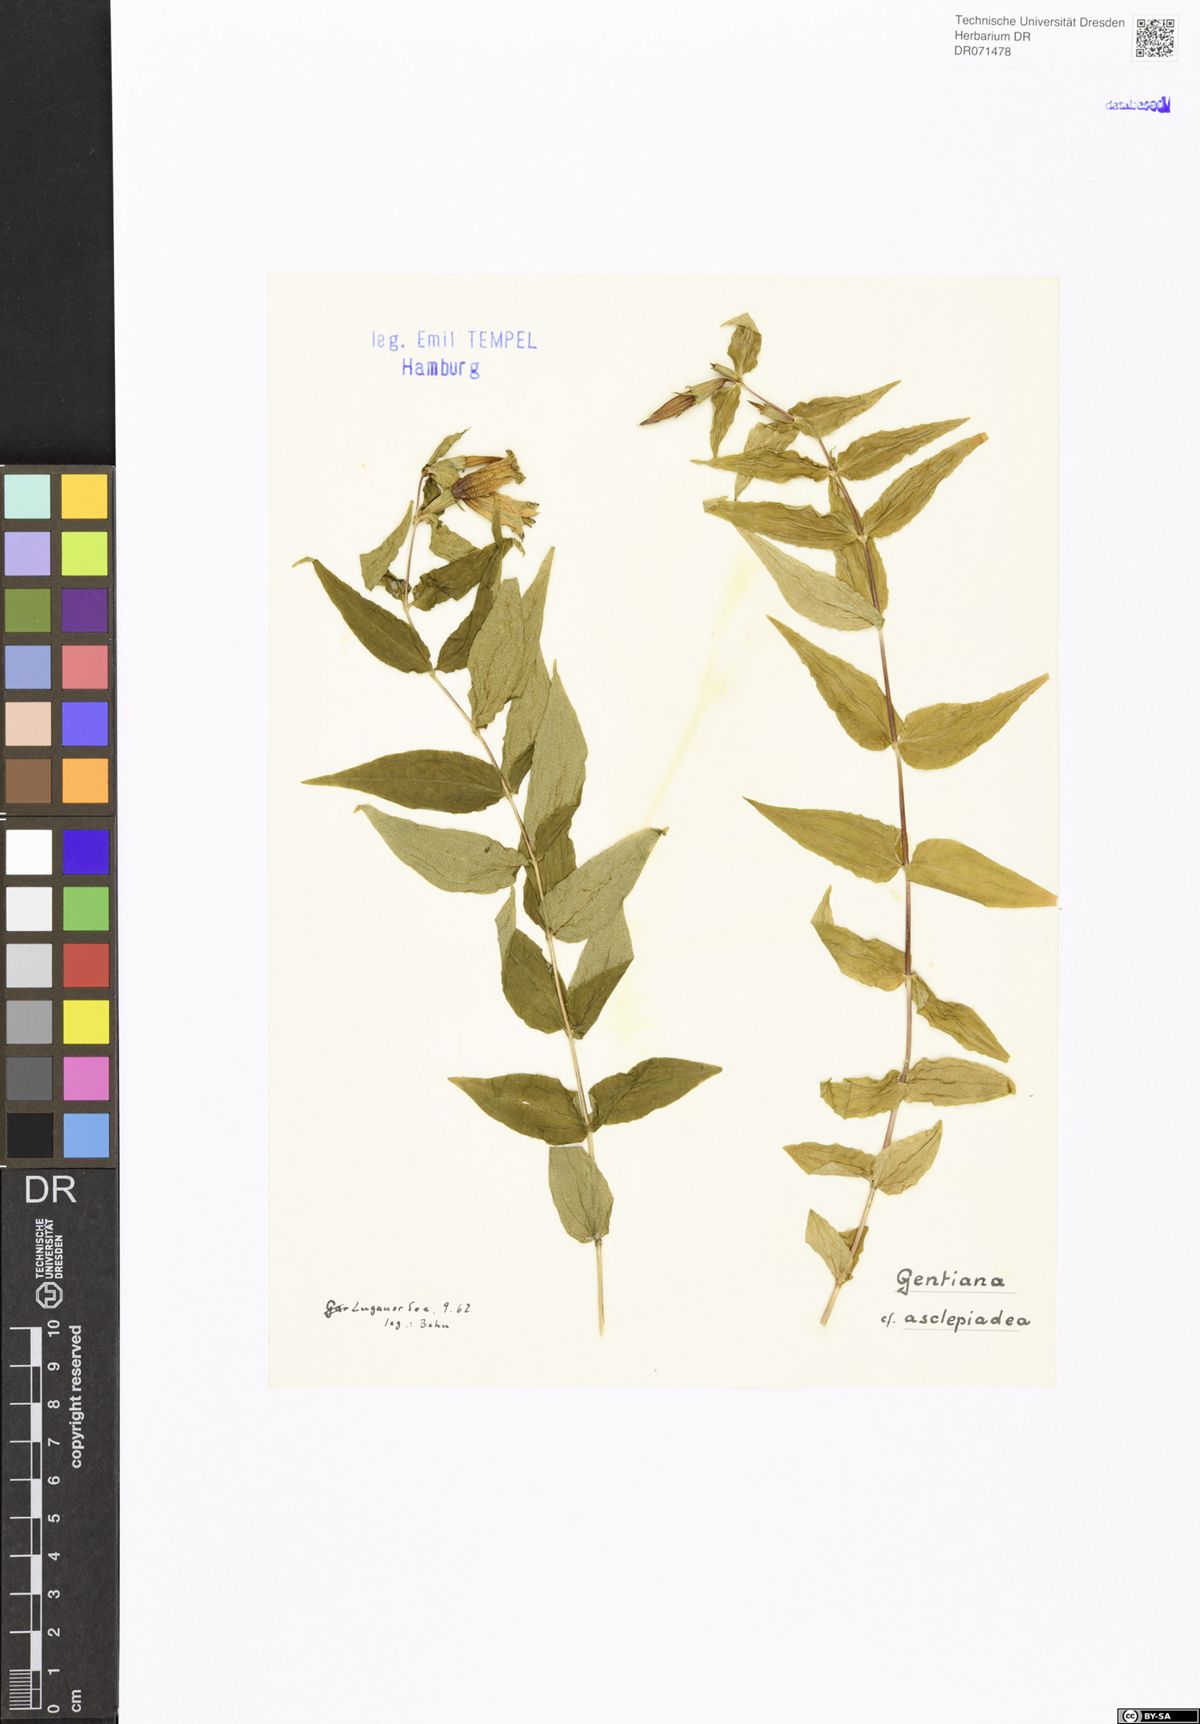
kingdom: Plantae
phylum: Tracheophyta
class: Magnoliopsida
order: Gentianales
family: Gentianaceae
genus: Gentiana
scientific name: Gentiana asclepiadea
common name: Willow gentian
